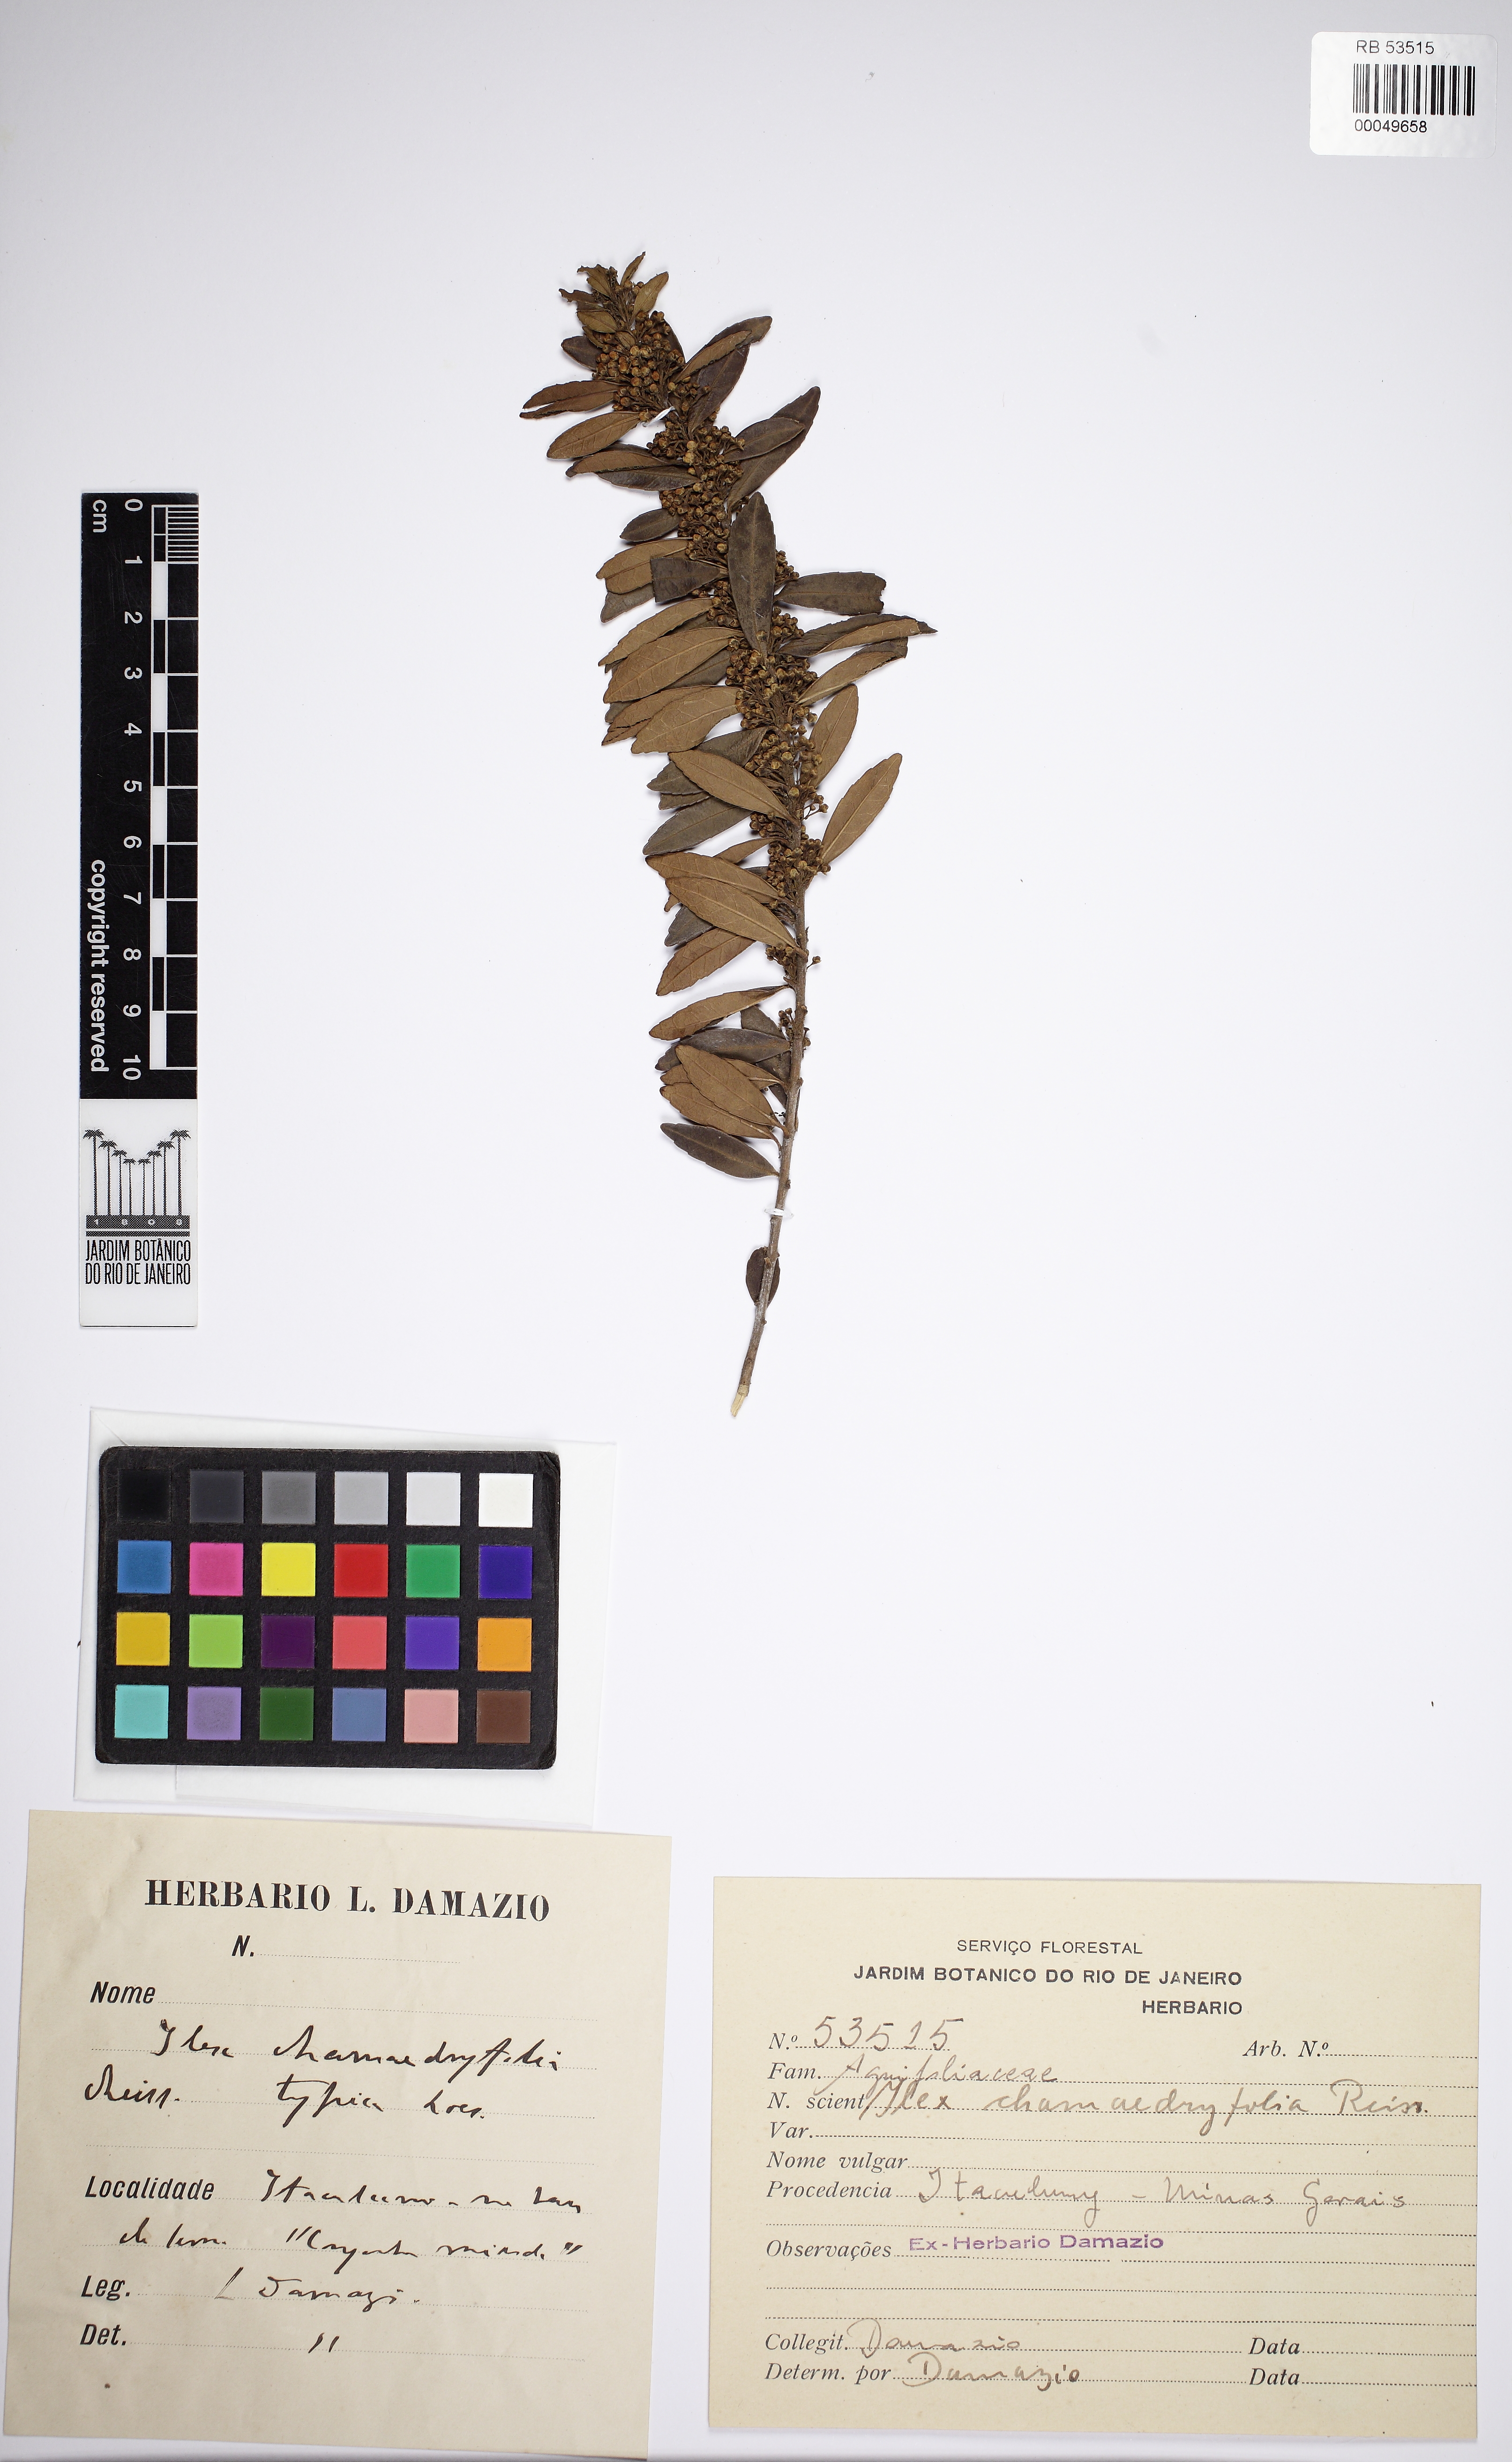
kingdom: Plantae
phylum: Tracheophyta
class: Magnoliopsida
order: Aquifoliales
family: Aquifoliaceae
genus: Ilex
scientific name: Ilex chamaedryfolia
